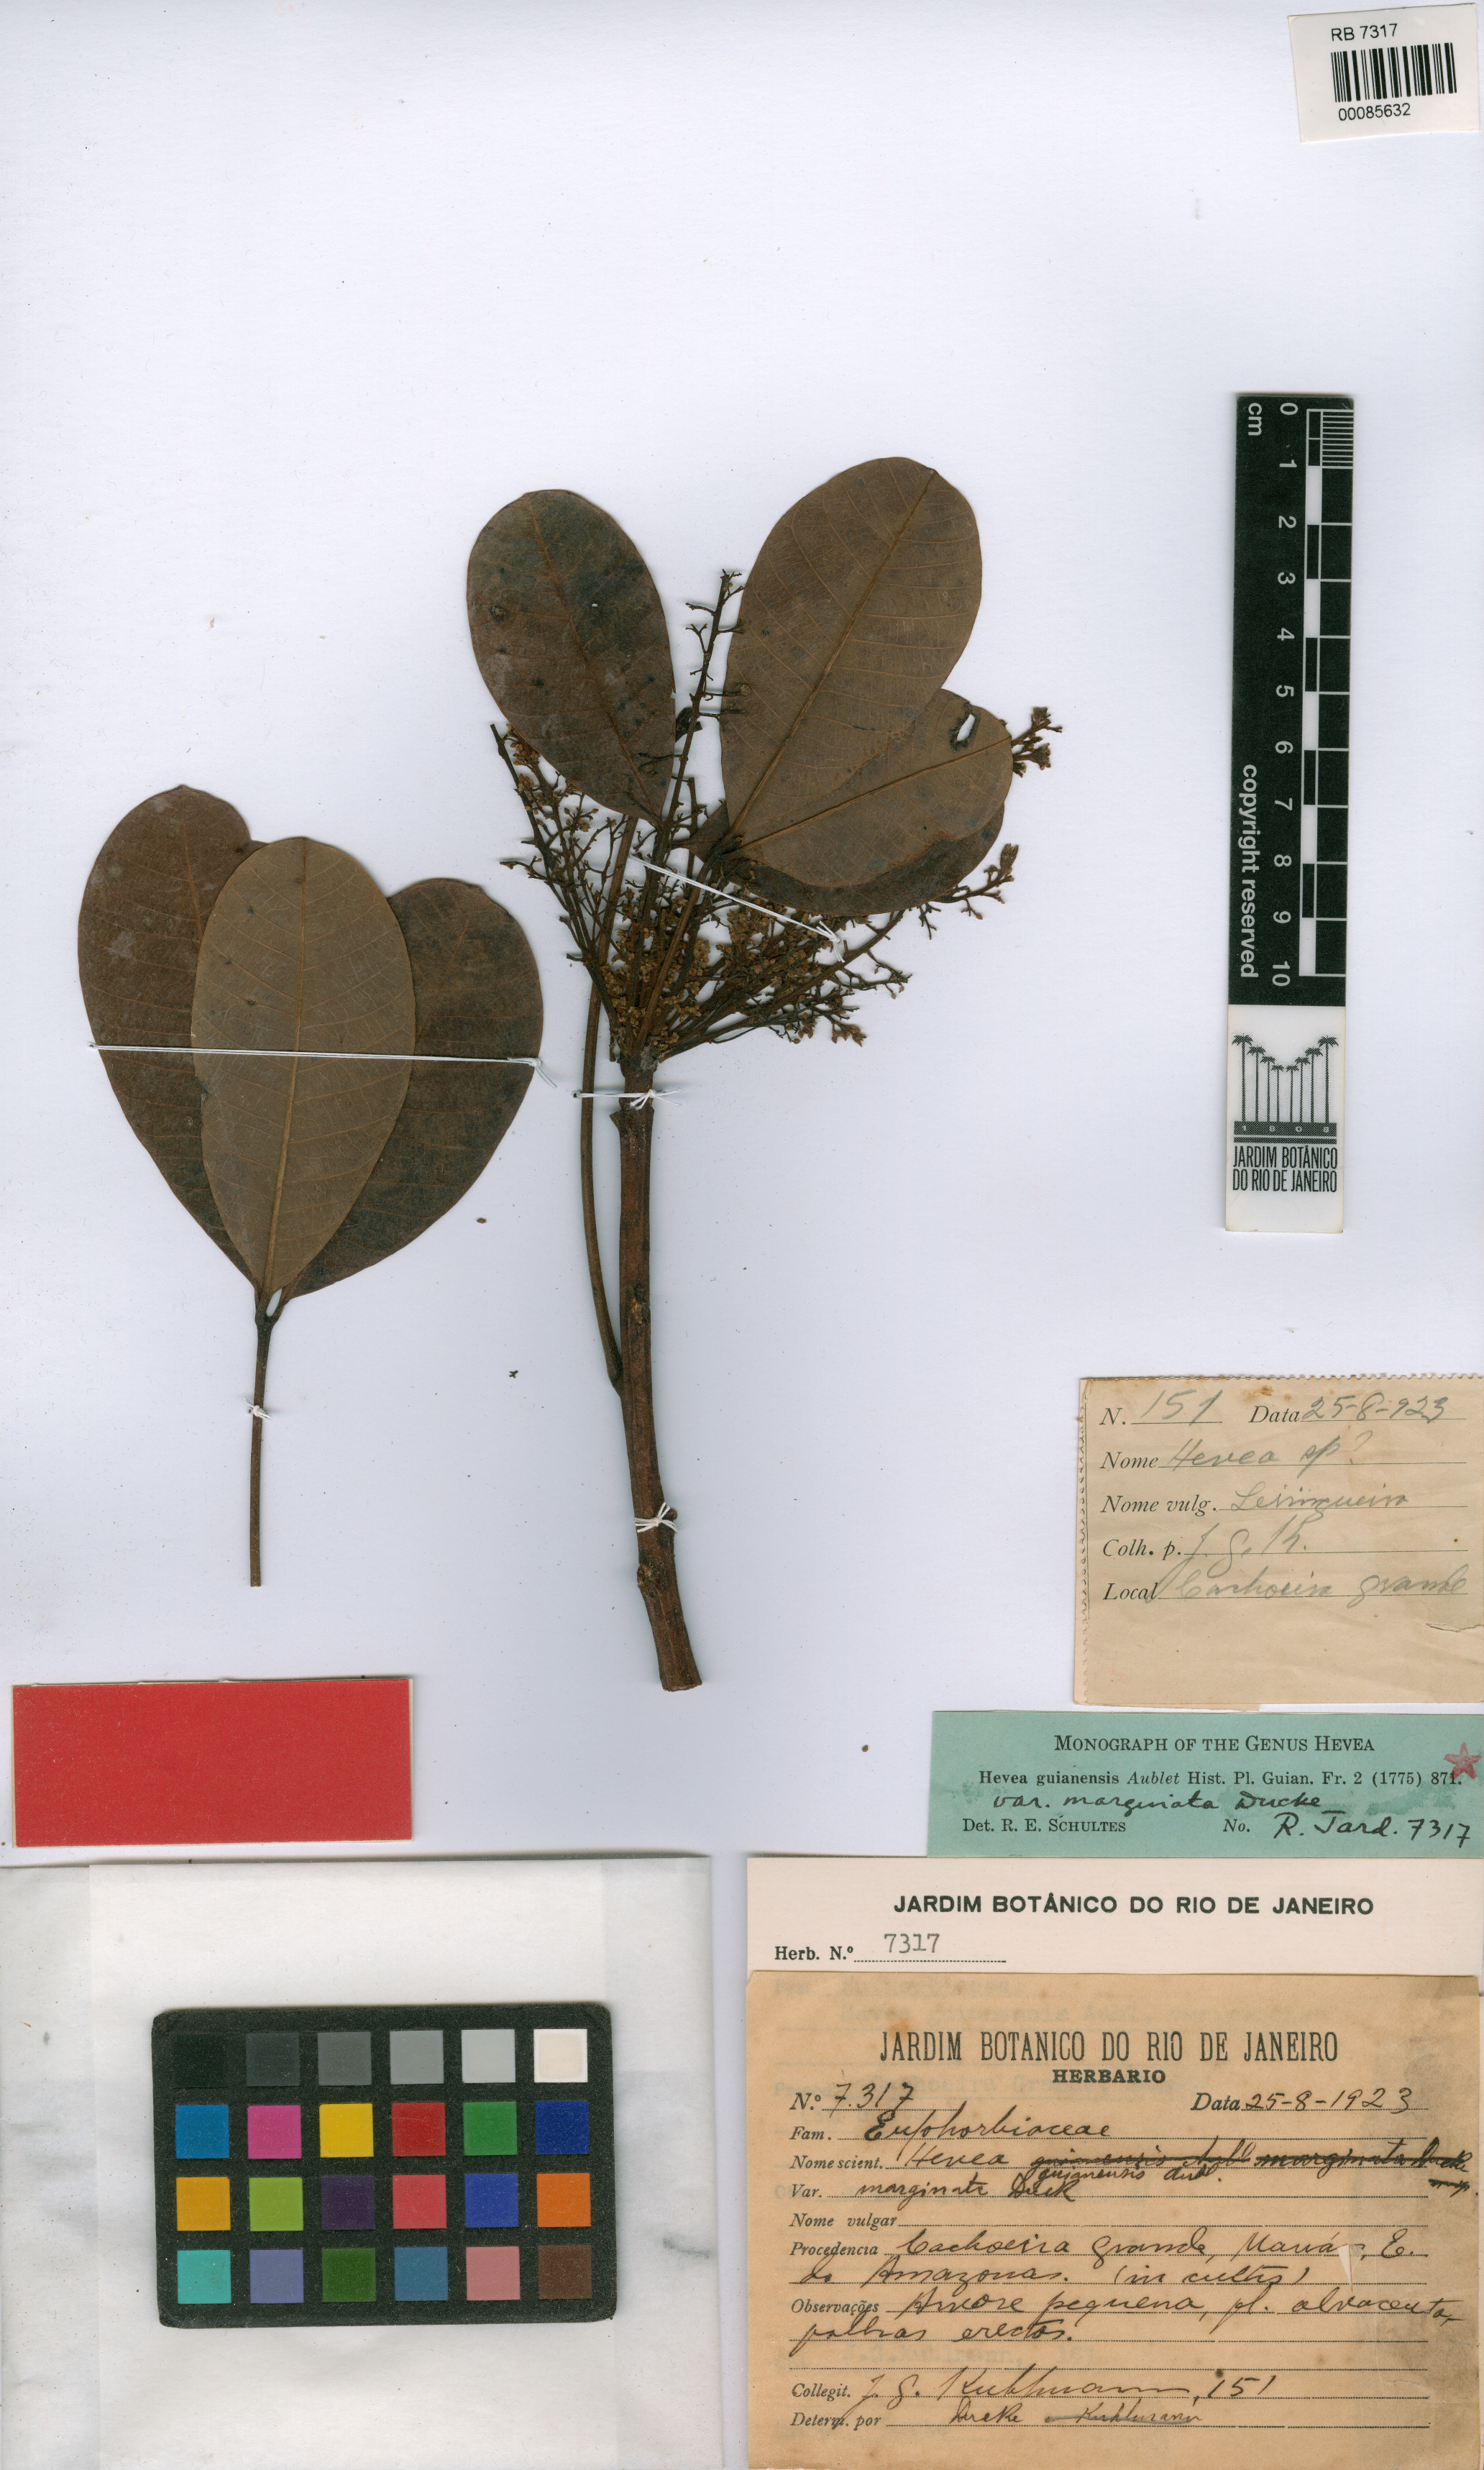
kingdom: Plantae
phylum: Tracheophyta
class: Magnoliopsida
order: Malpighiales
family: Euphorbiaceae
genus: Hevea
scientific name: Hevea guianensis
